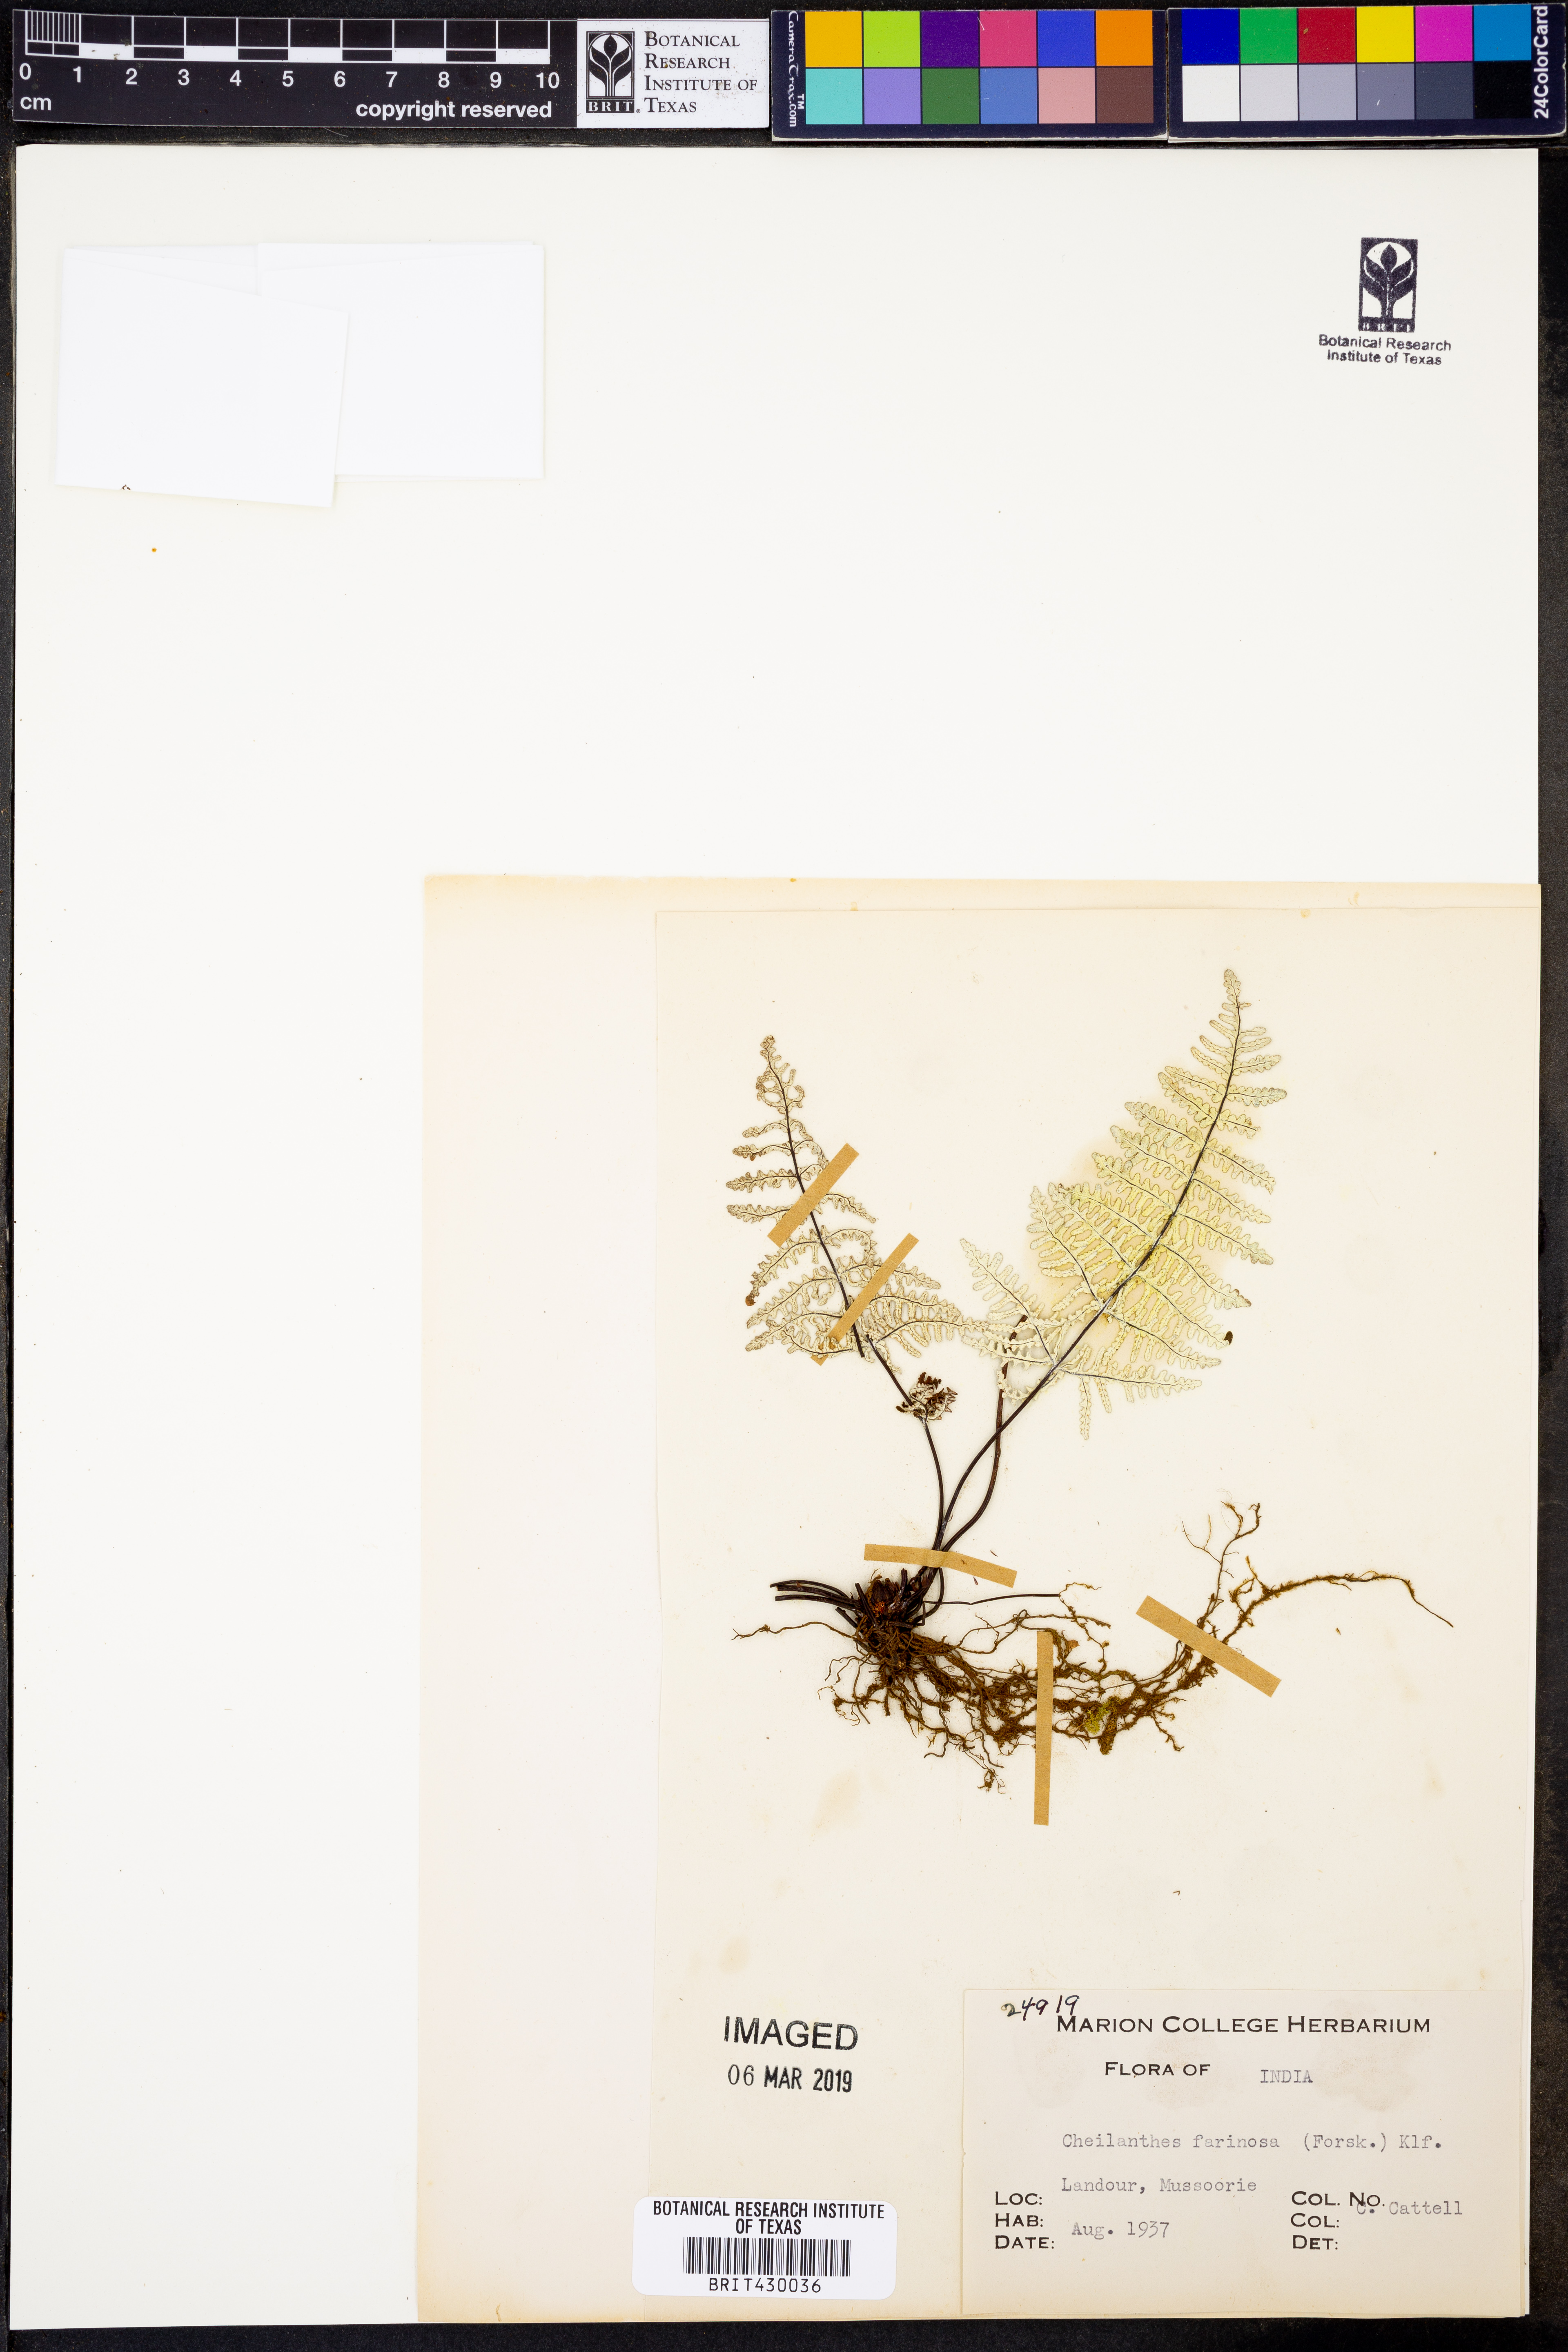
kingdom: Plantae
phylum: Tracheophyta
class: Polypodiopsida
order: Polypodiales
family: Pteridaceae
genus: Aleuritopteris
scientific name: Aleuritopteris farinosa
